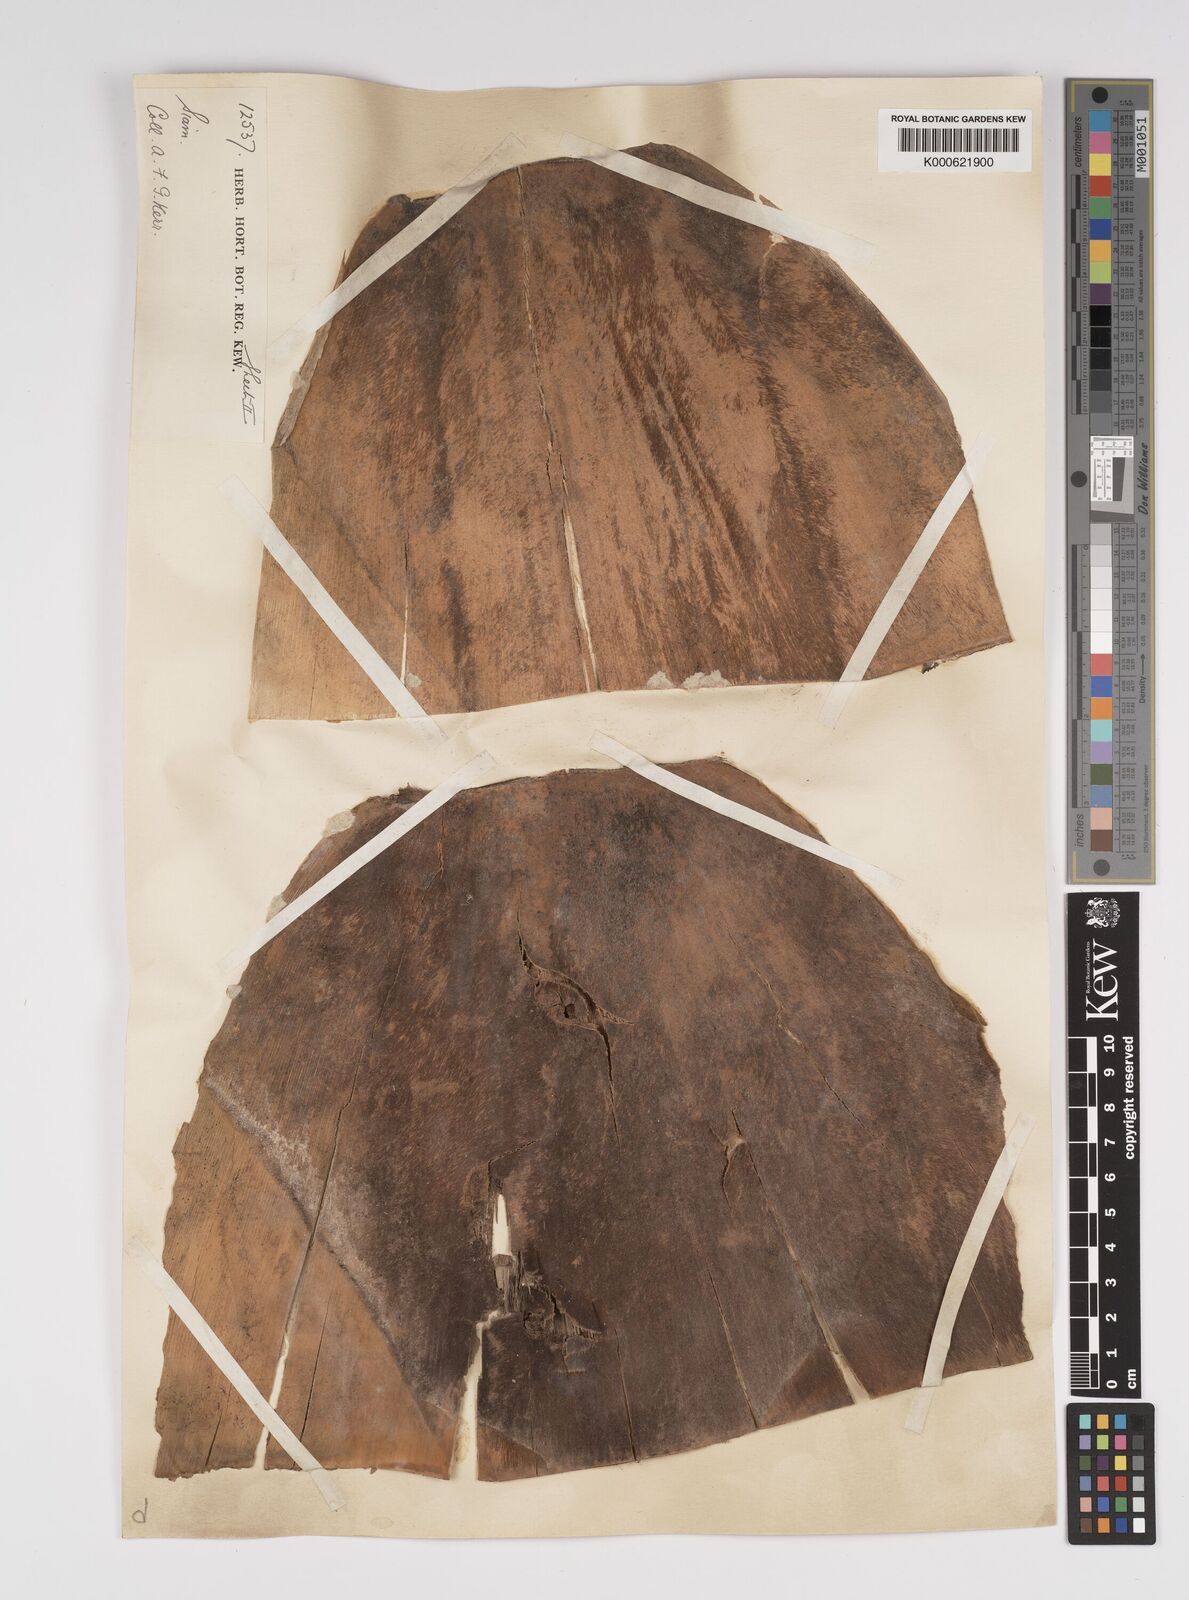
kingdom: Plantae
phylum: Tracheophyta
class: Liliopsida
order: Poales
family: Poaceae
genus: Bambusa
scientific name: Bambusa
